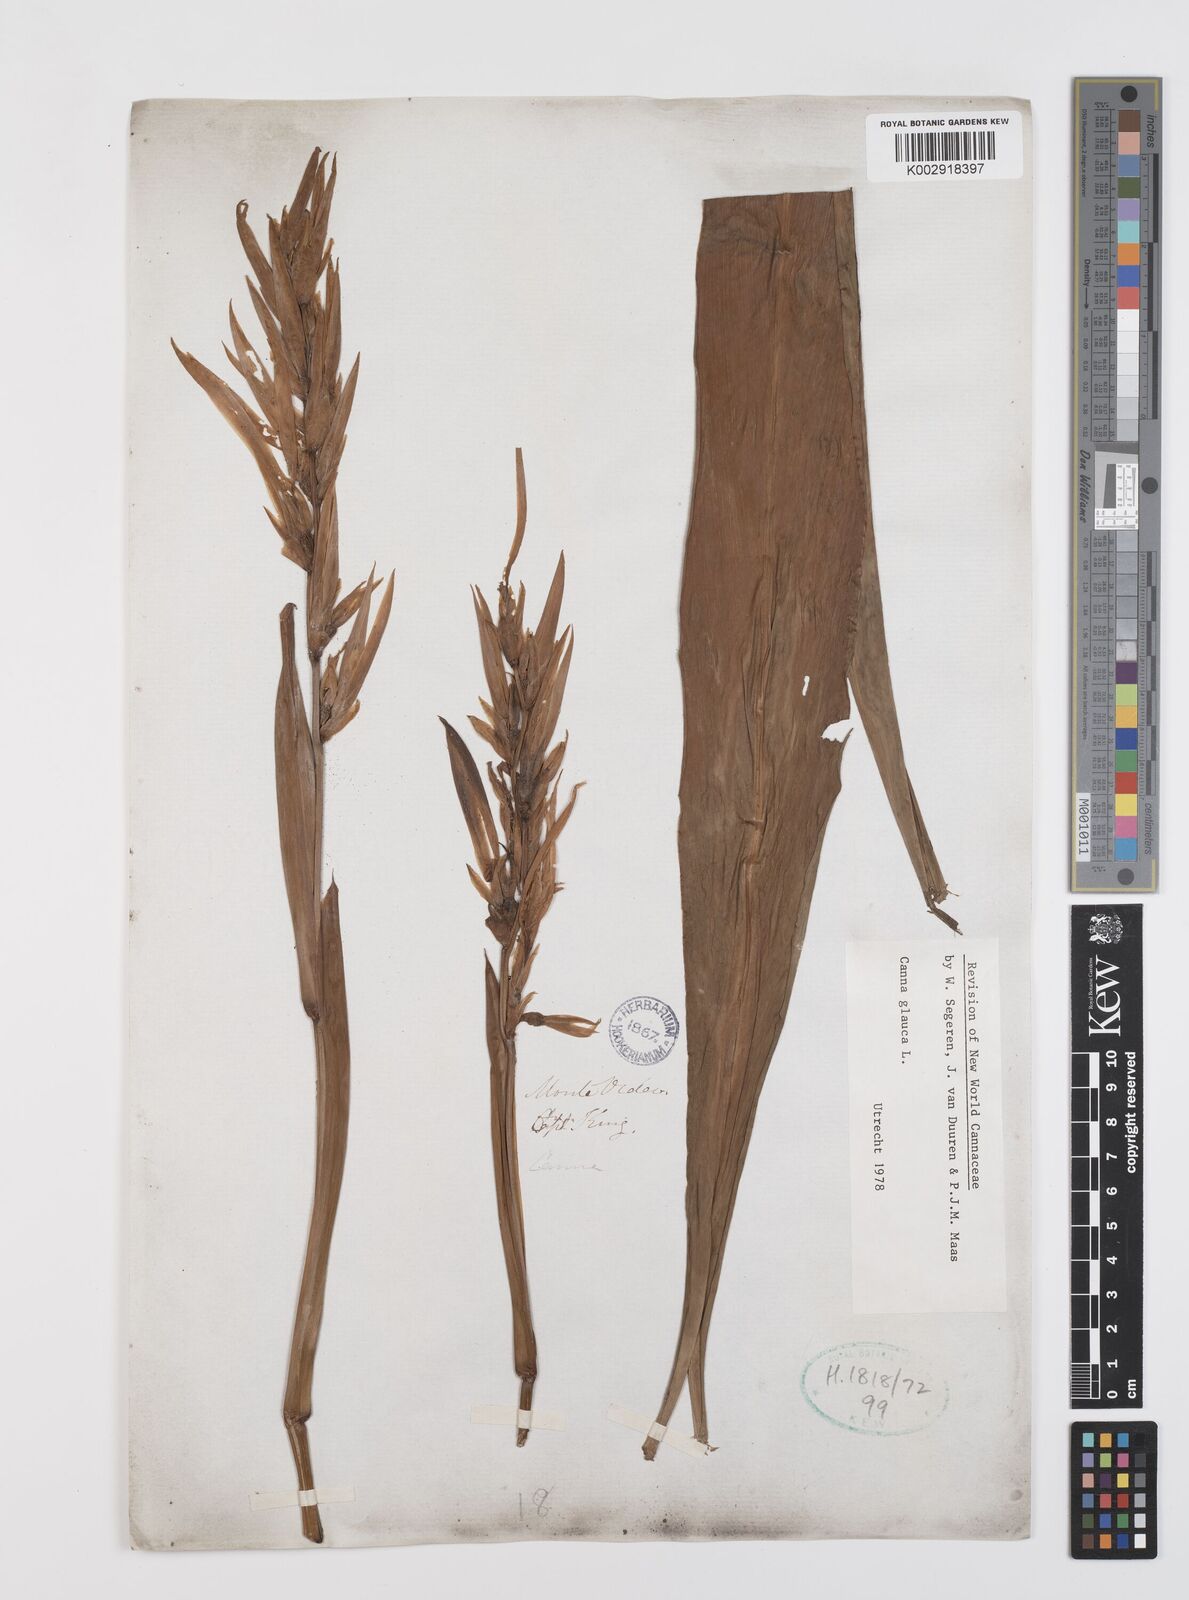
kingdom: Plantae
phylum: Tracheophyta
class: Liliopsida
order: Zingiberales
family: Cannaceae
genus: Canna
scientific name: Canna glauca
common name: Louisiana canna
